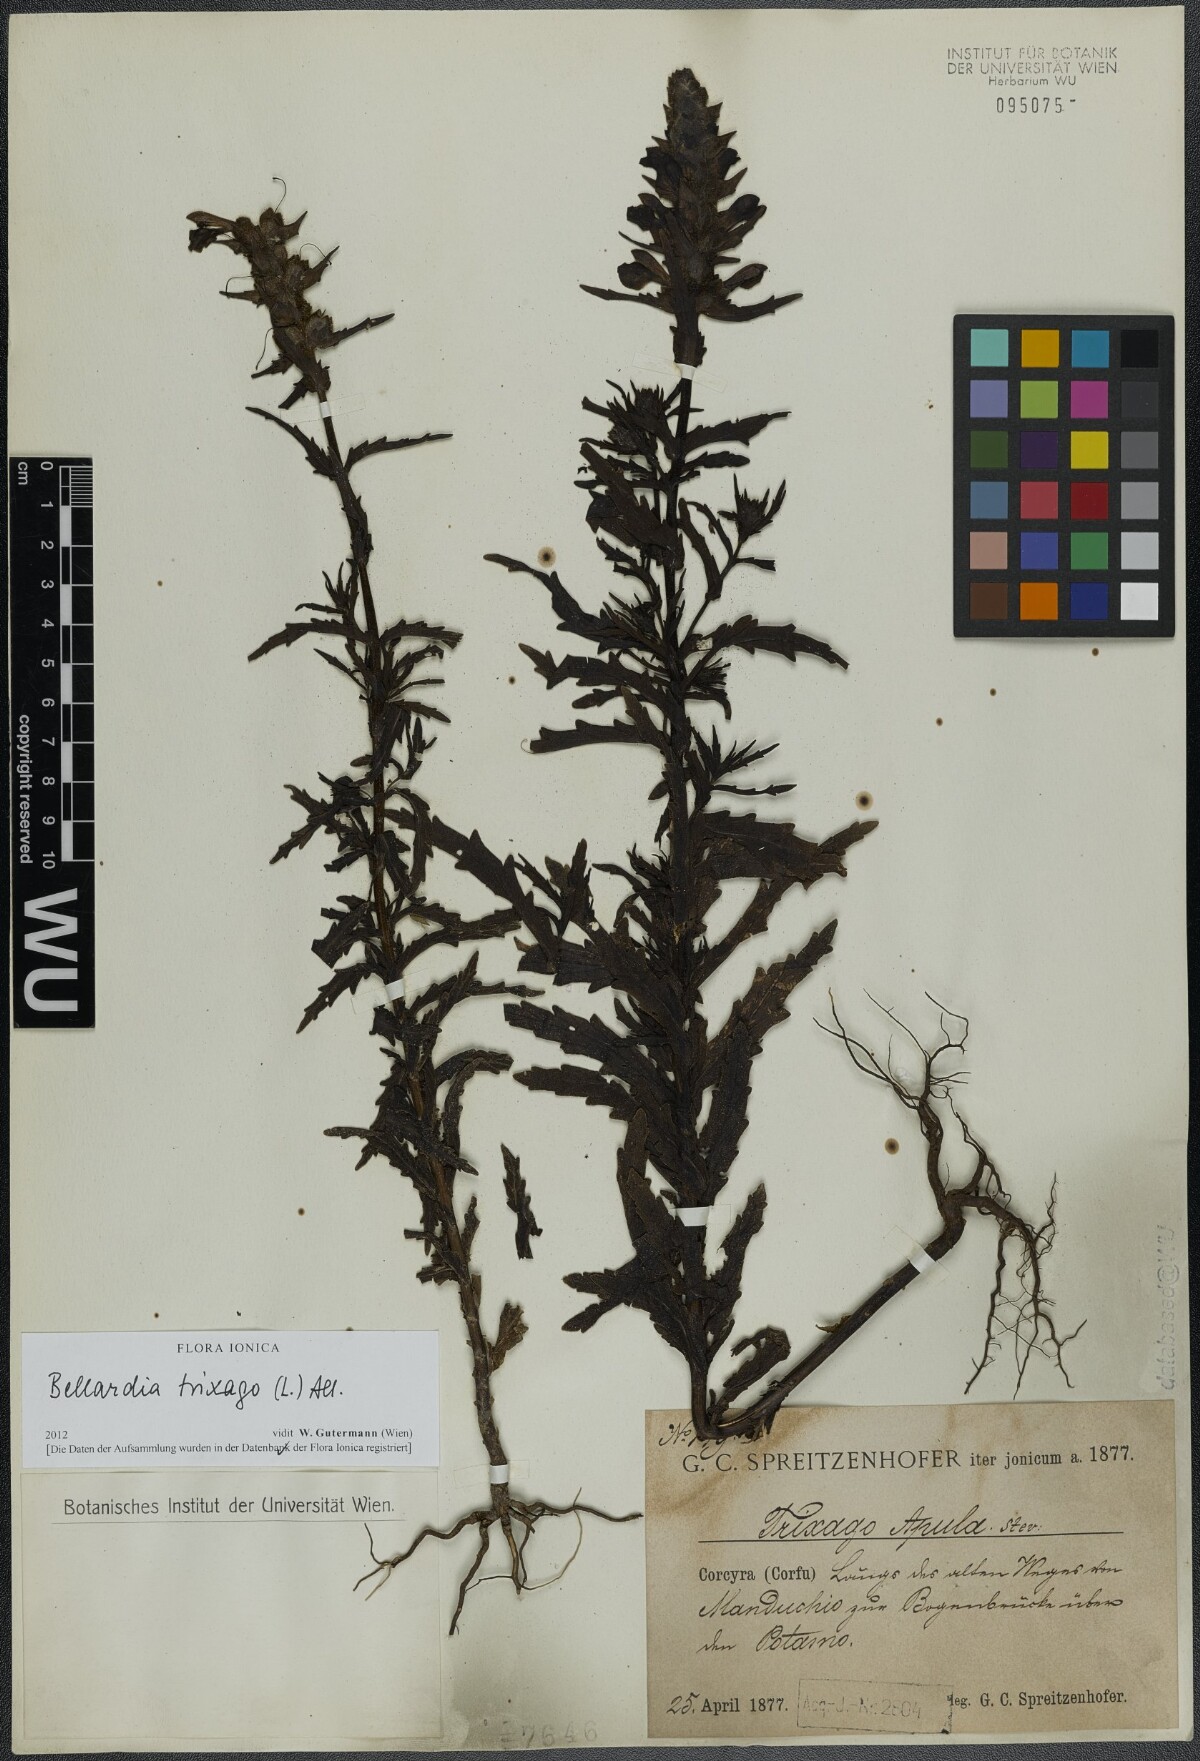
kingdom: Plantae
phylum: Tracheophyta
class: Magnoliopsida
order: Lamiales
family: Orobanchaceae
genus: Bellardia
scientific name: Bellardia trixago
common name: Mediterranean lineseed
